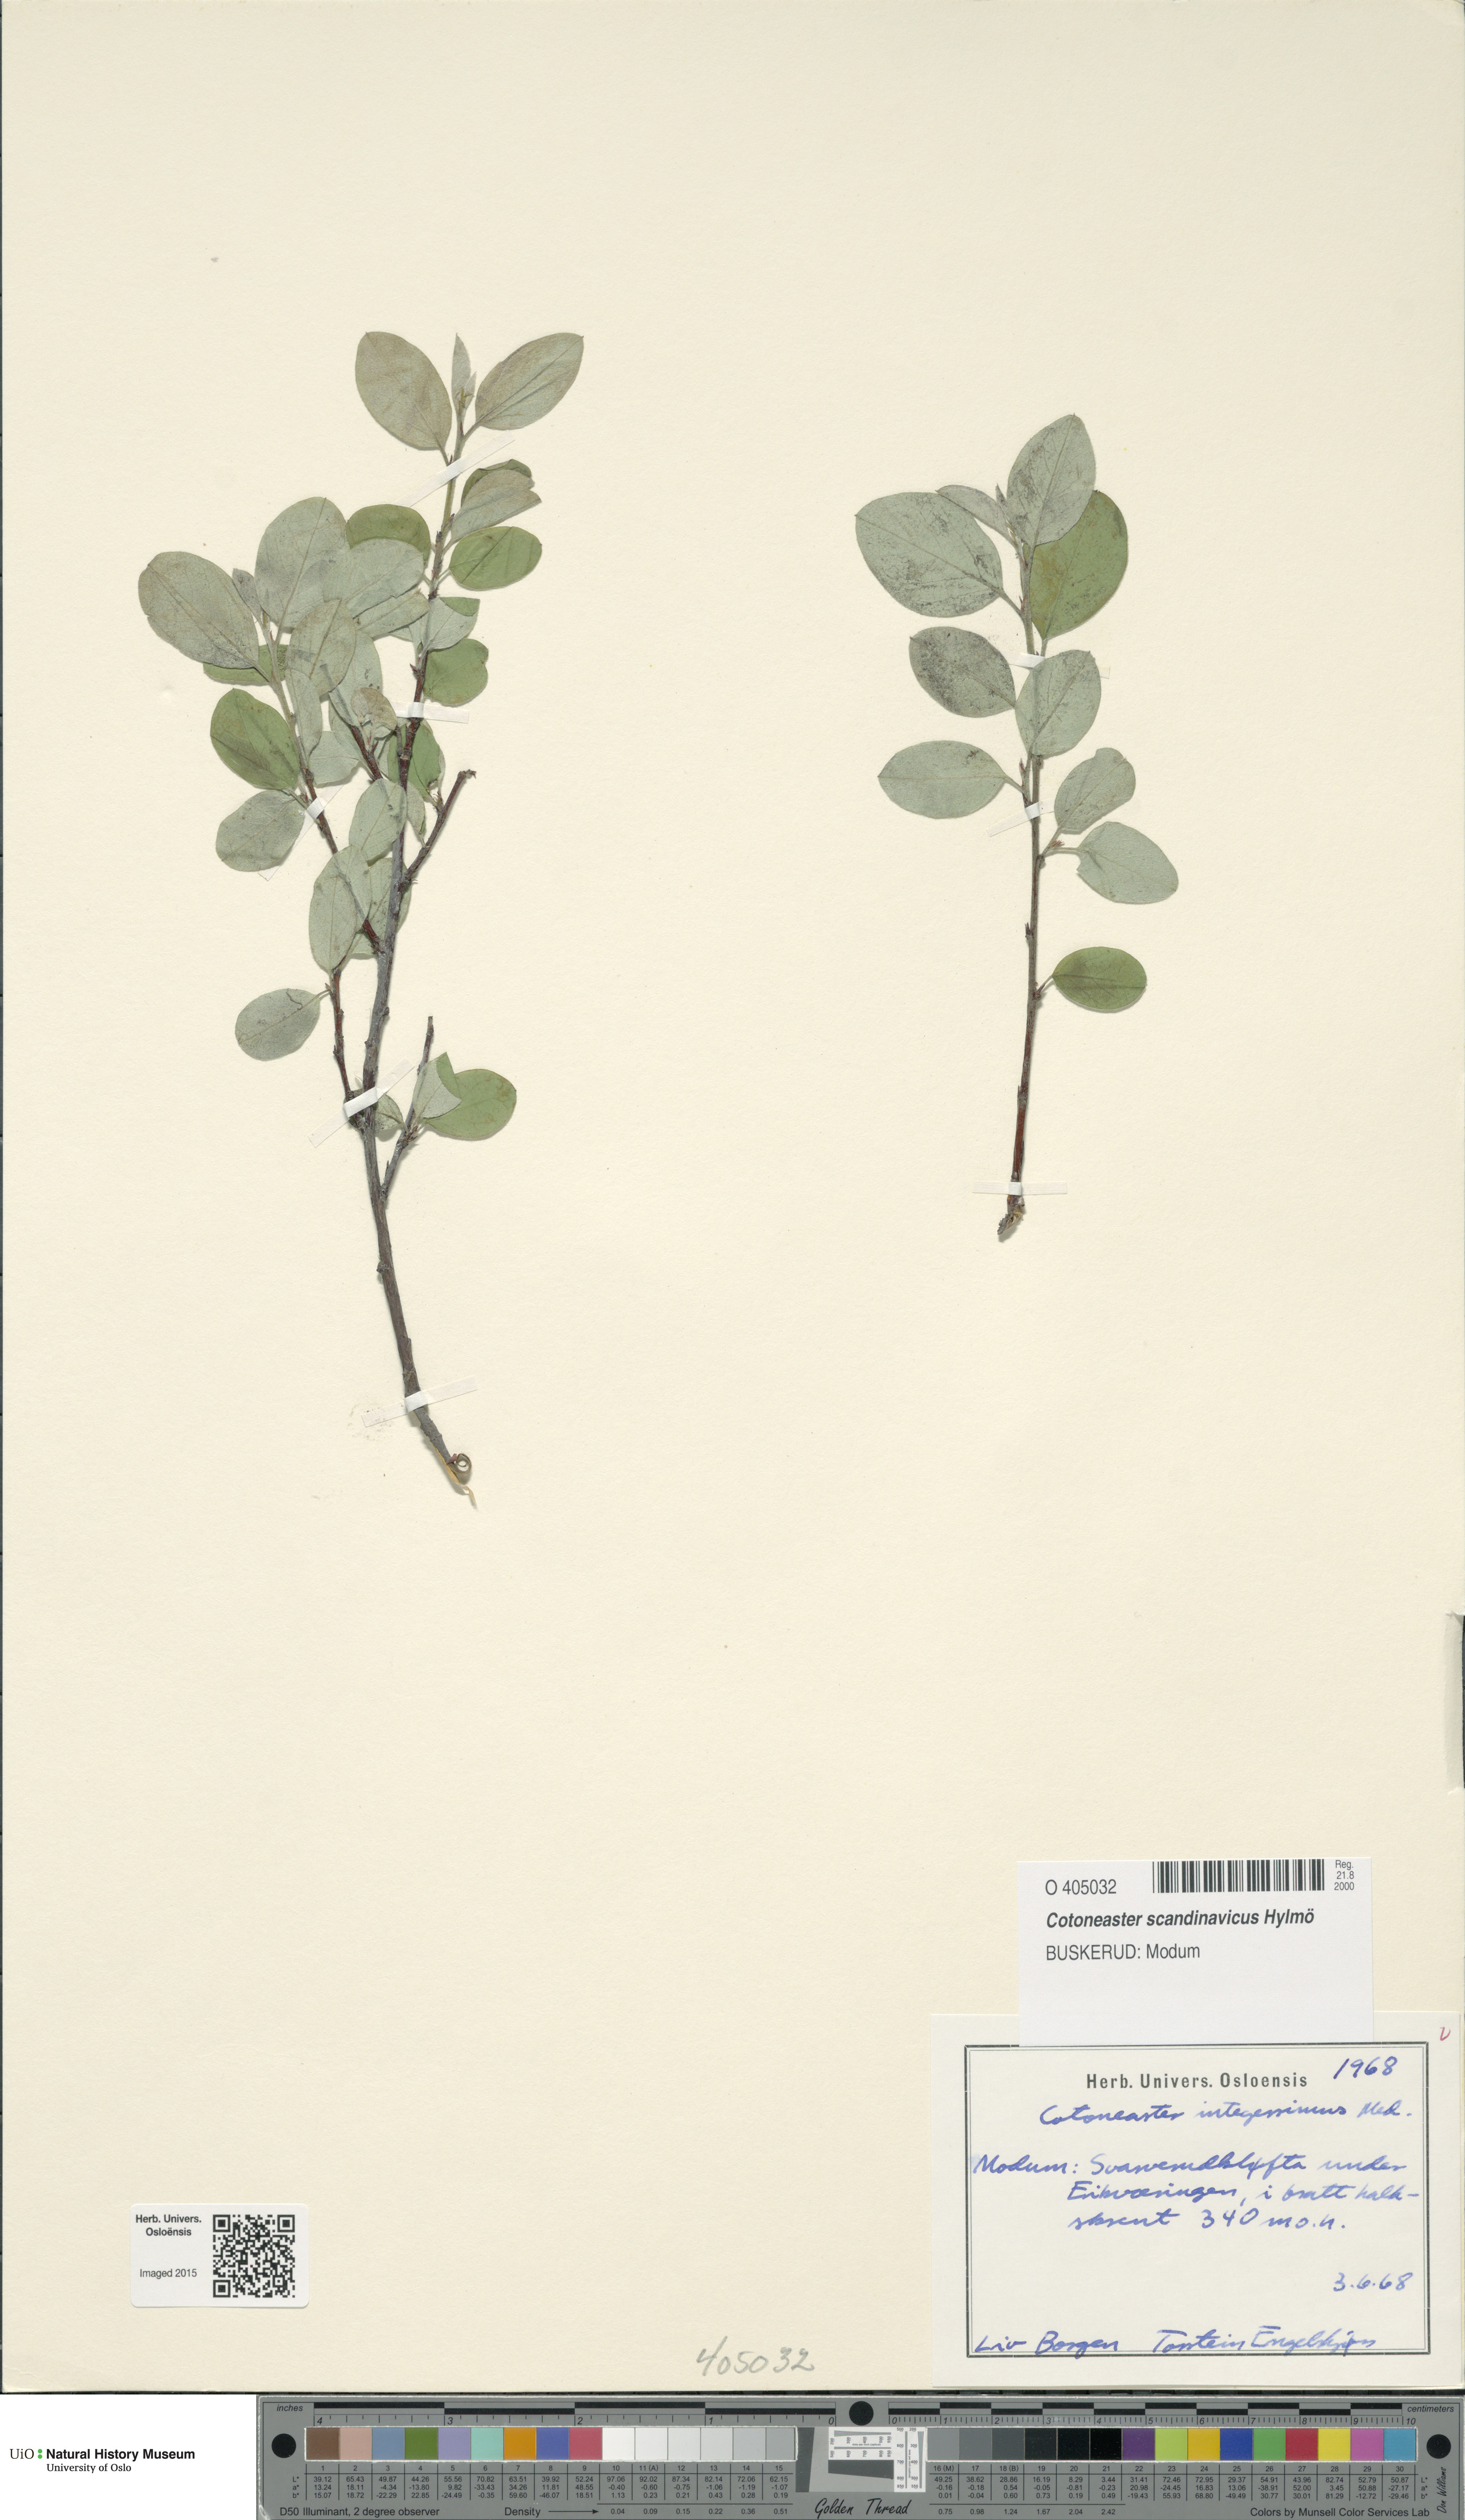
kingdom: Plantae
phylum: Tracheophyta
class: Magnoliopsida
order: Rosales
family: Rosaceae
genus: Cotoneaster
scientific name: Cotoneaster integerrimus
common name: Wild cotoneaster
